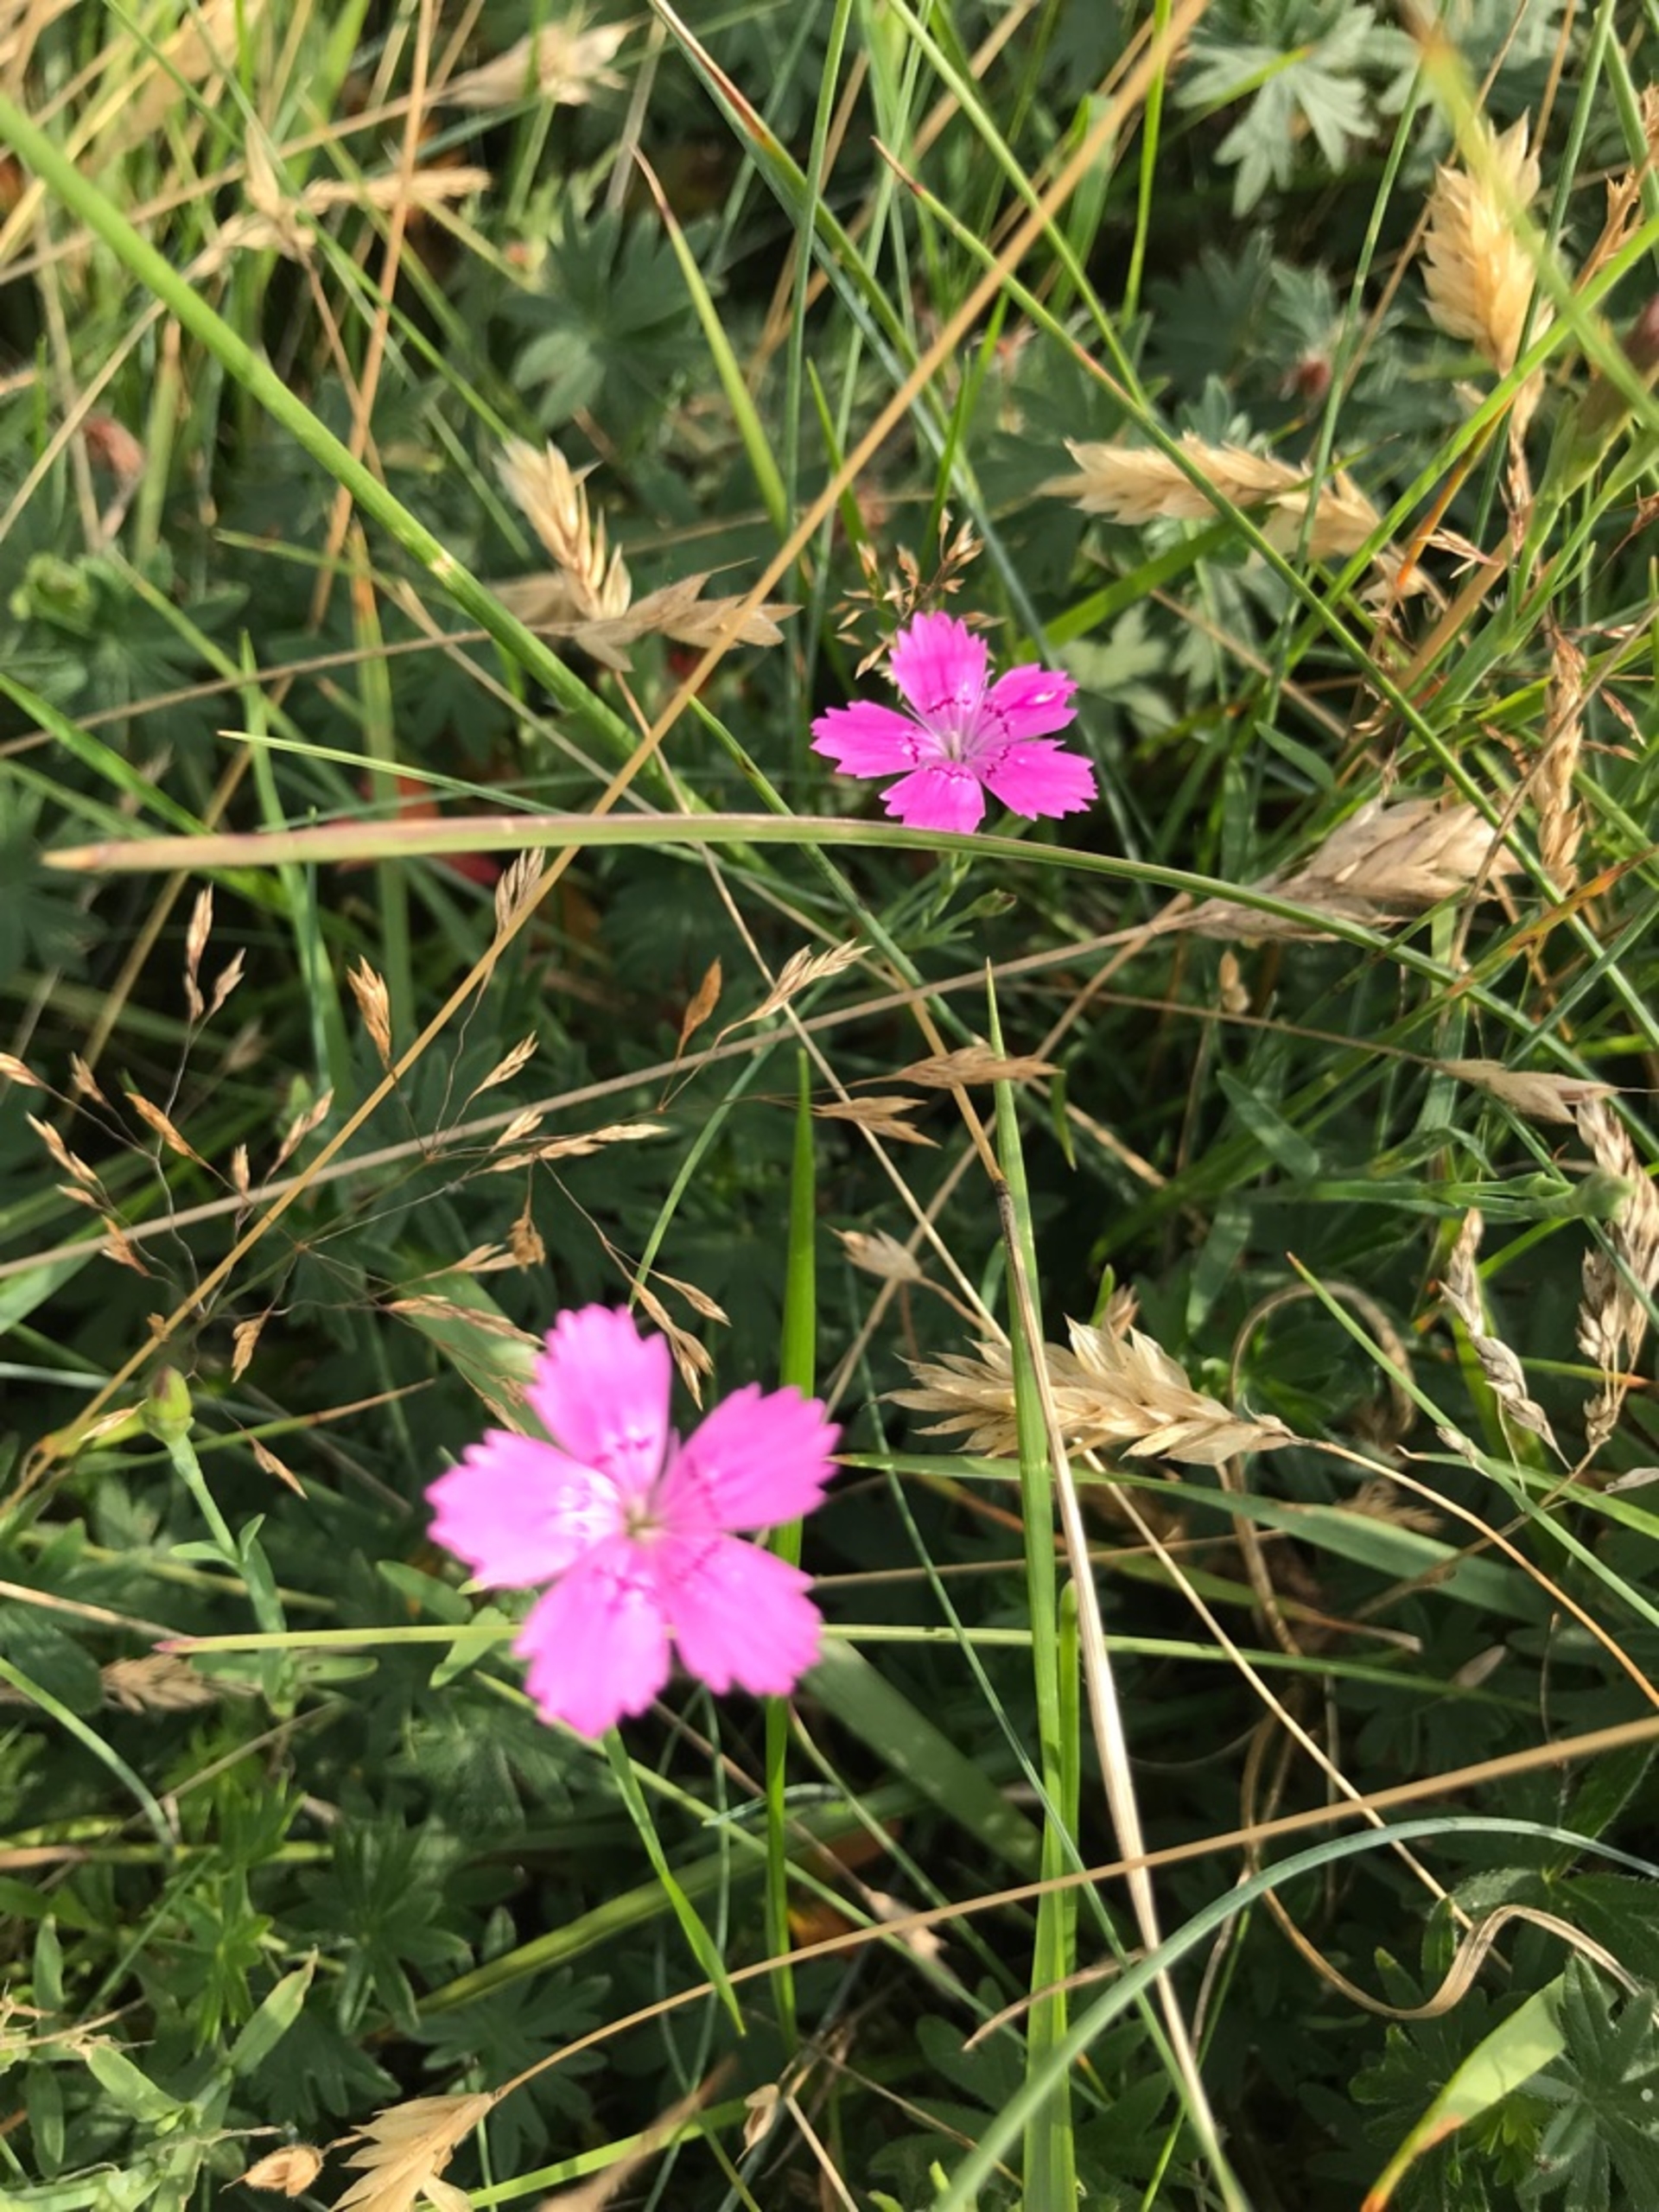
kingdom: Plantae
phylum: Tracheophyta
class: Magnoliopsida
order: Caryophyllales
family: Caryophyllaceae
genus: Dianthus
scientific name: Dianthus deltoides
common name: Bakke-nellike
